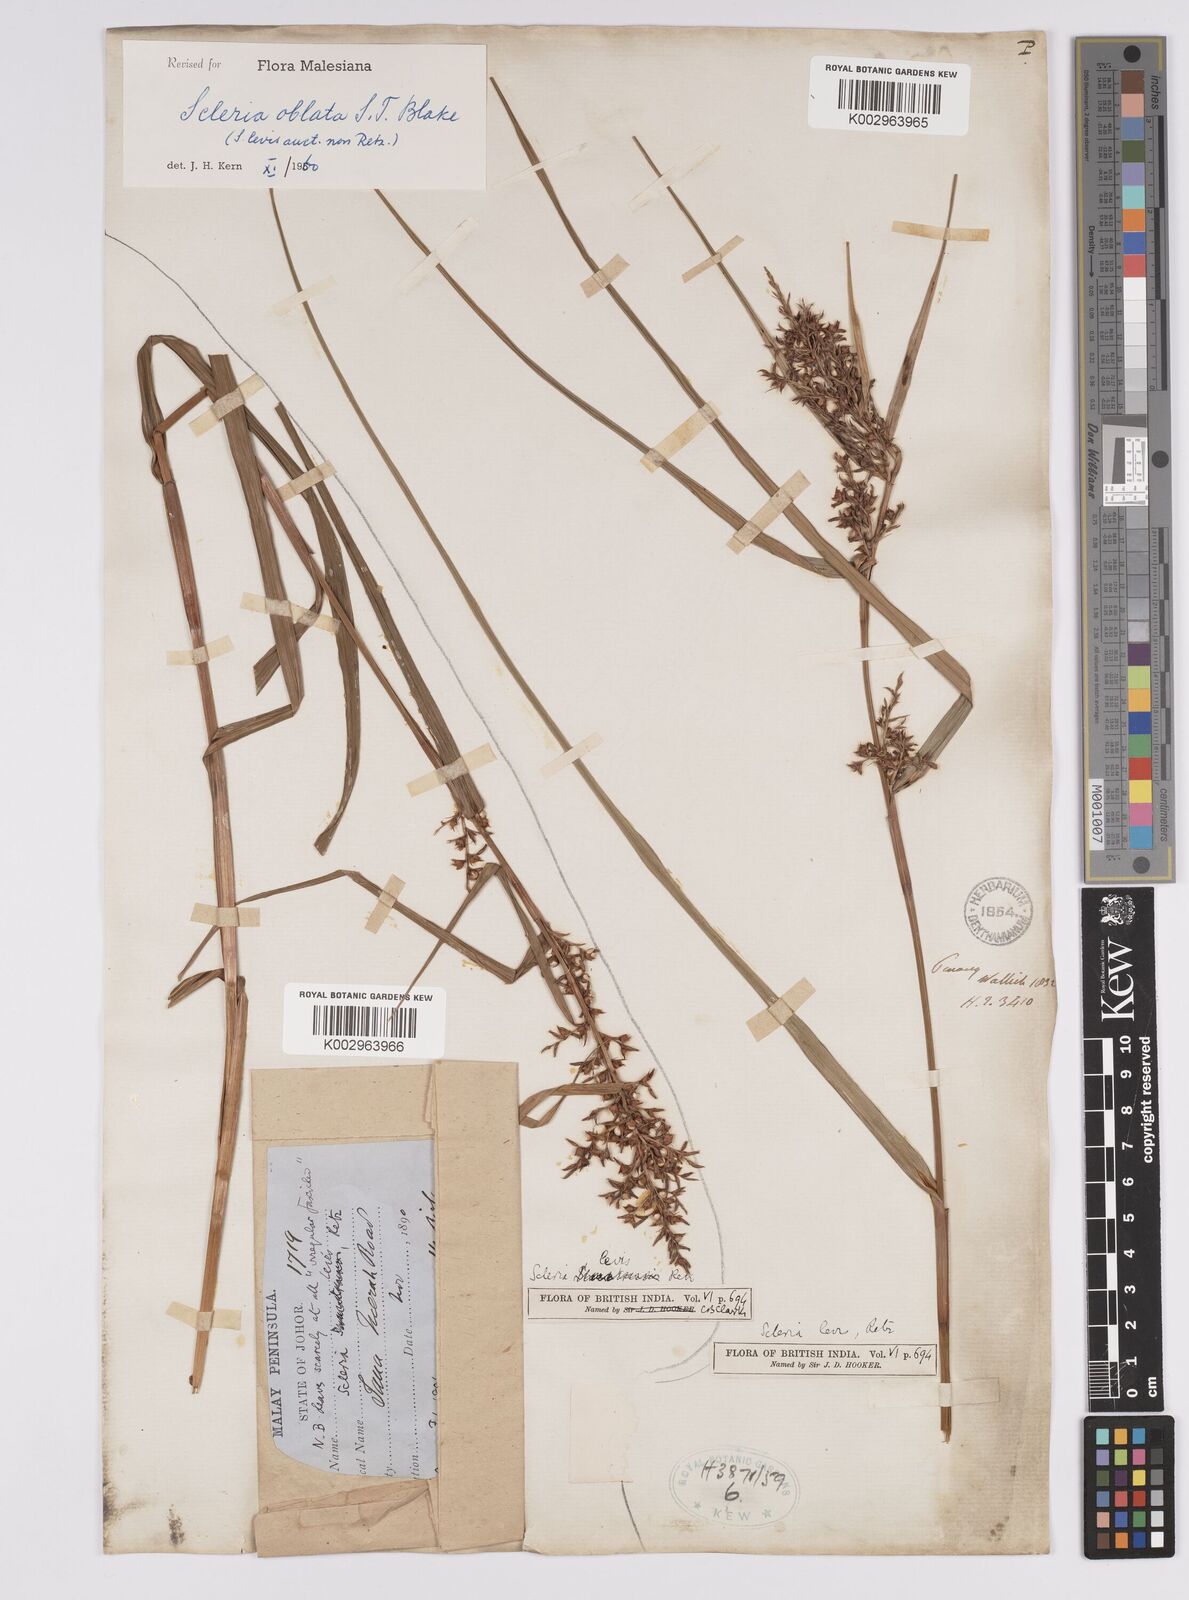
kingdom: Plantae
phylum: Tracheophyta
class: Liliopsida
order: Poales
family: Cyperaceae
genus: Scleria
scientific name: Scleria oblata
